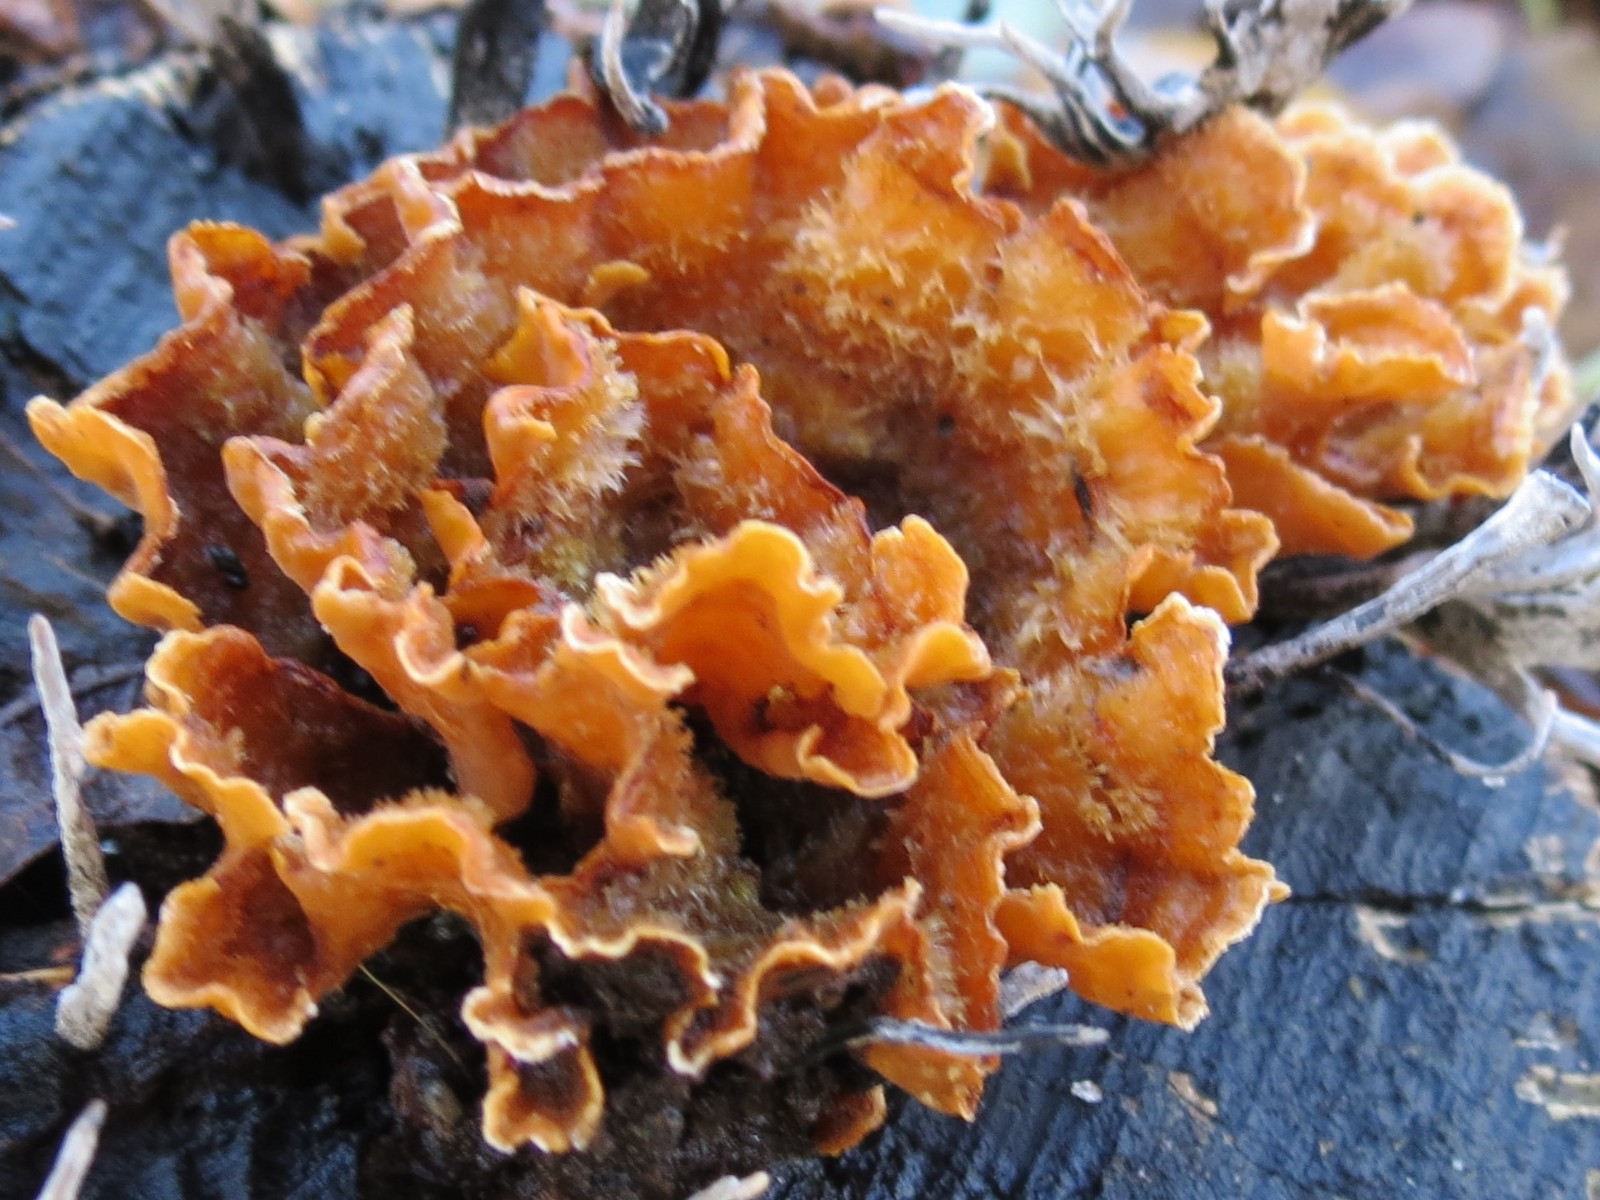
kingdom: Fungi
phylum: Basidiomycota
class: Agaricomycetes
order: Russulales
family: Stereaceae
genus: Stereum
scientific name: Stereum hirsutum
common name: håret lædersvamp
